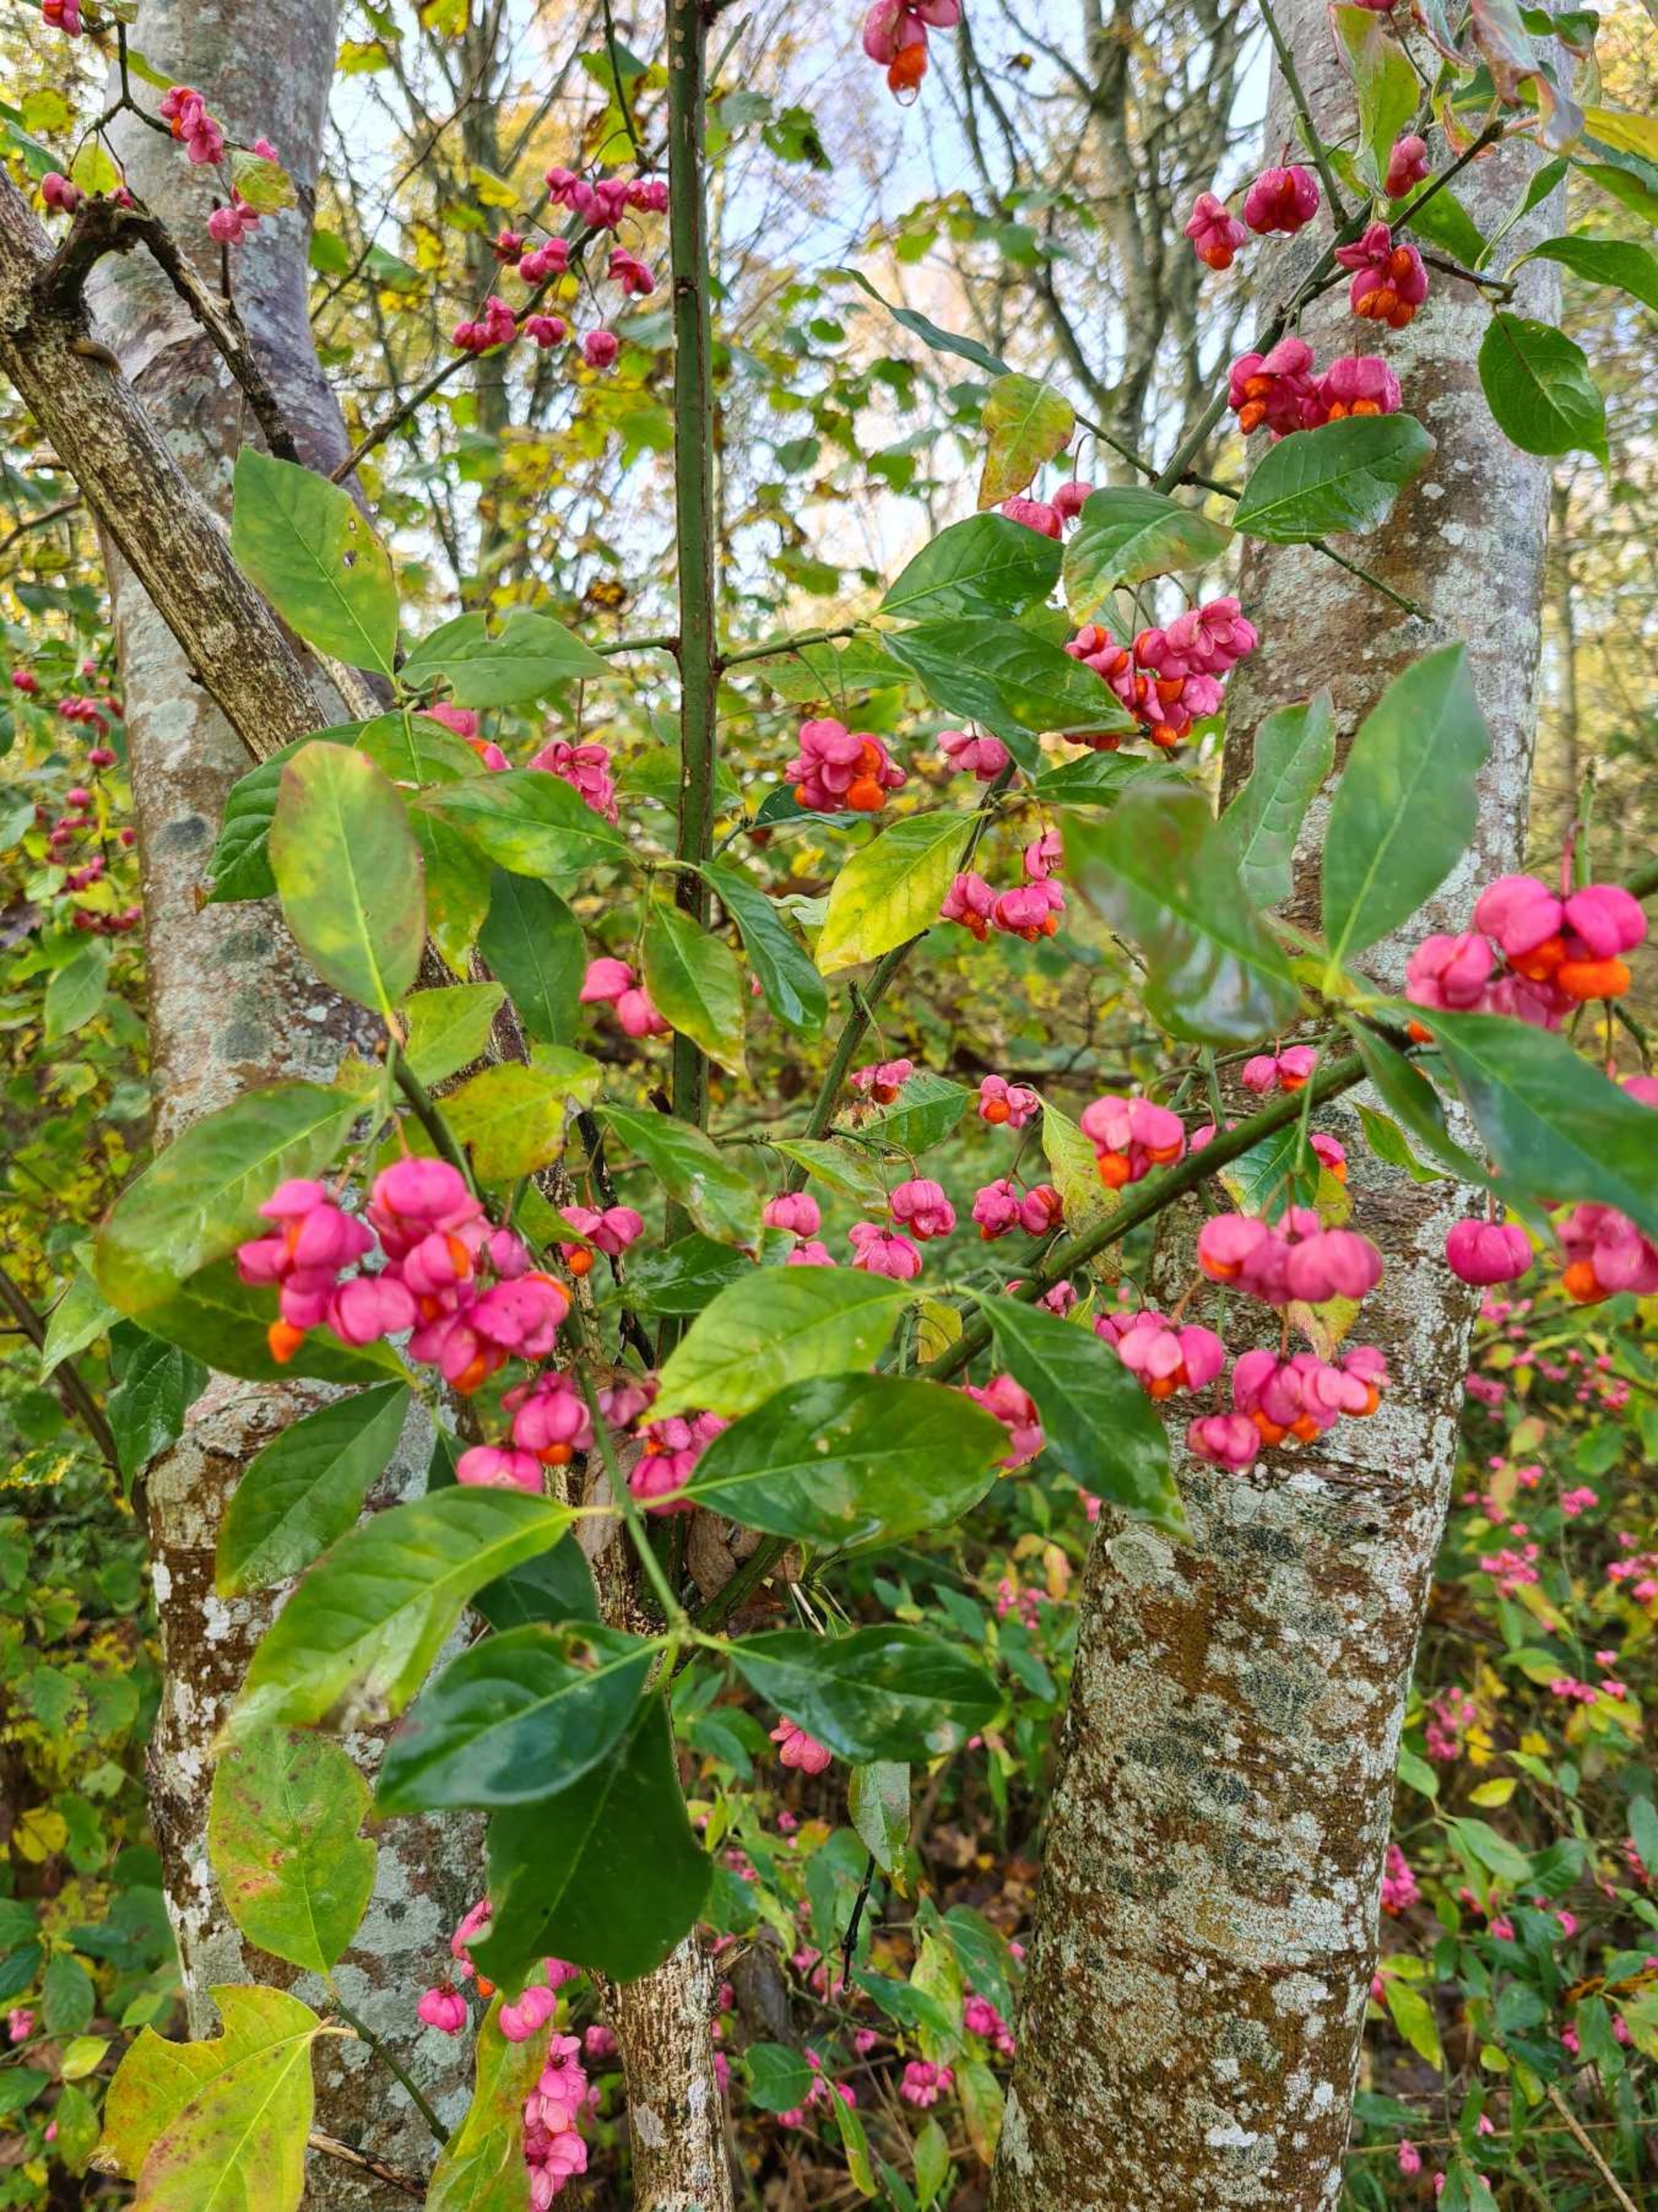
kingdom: Plantae
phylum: Tracheophyta
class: Magnoliopsida
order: Celastrales
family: Celastraceae
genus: Euonymus
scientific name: Euonymus europaeus
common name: Benved
